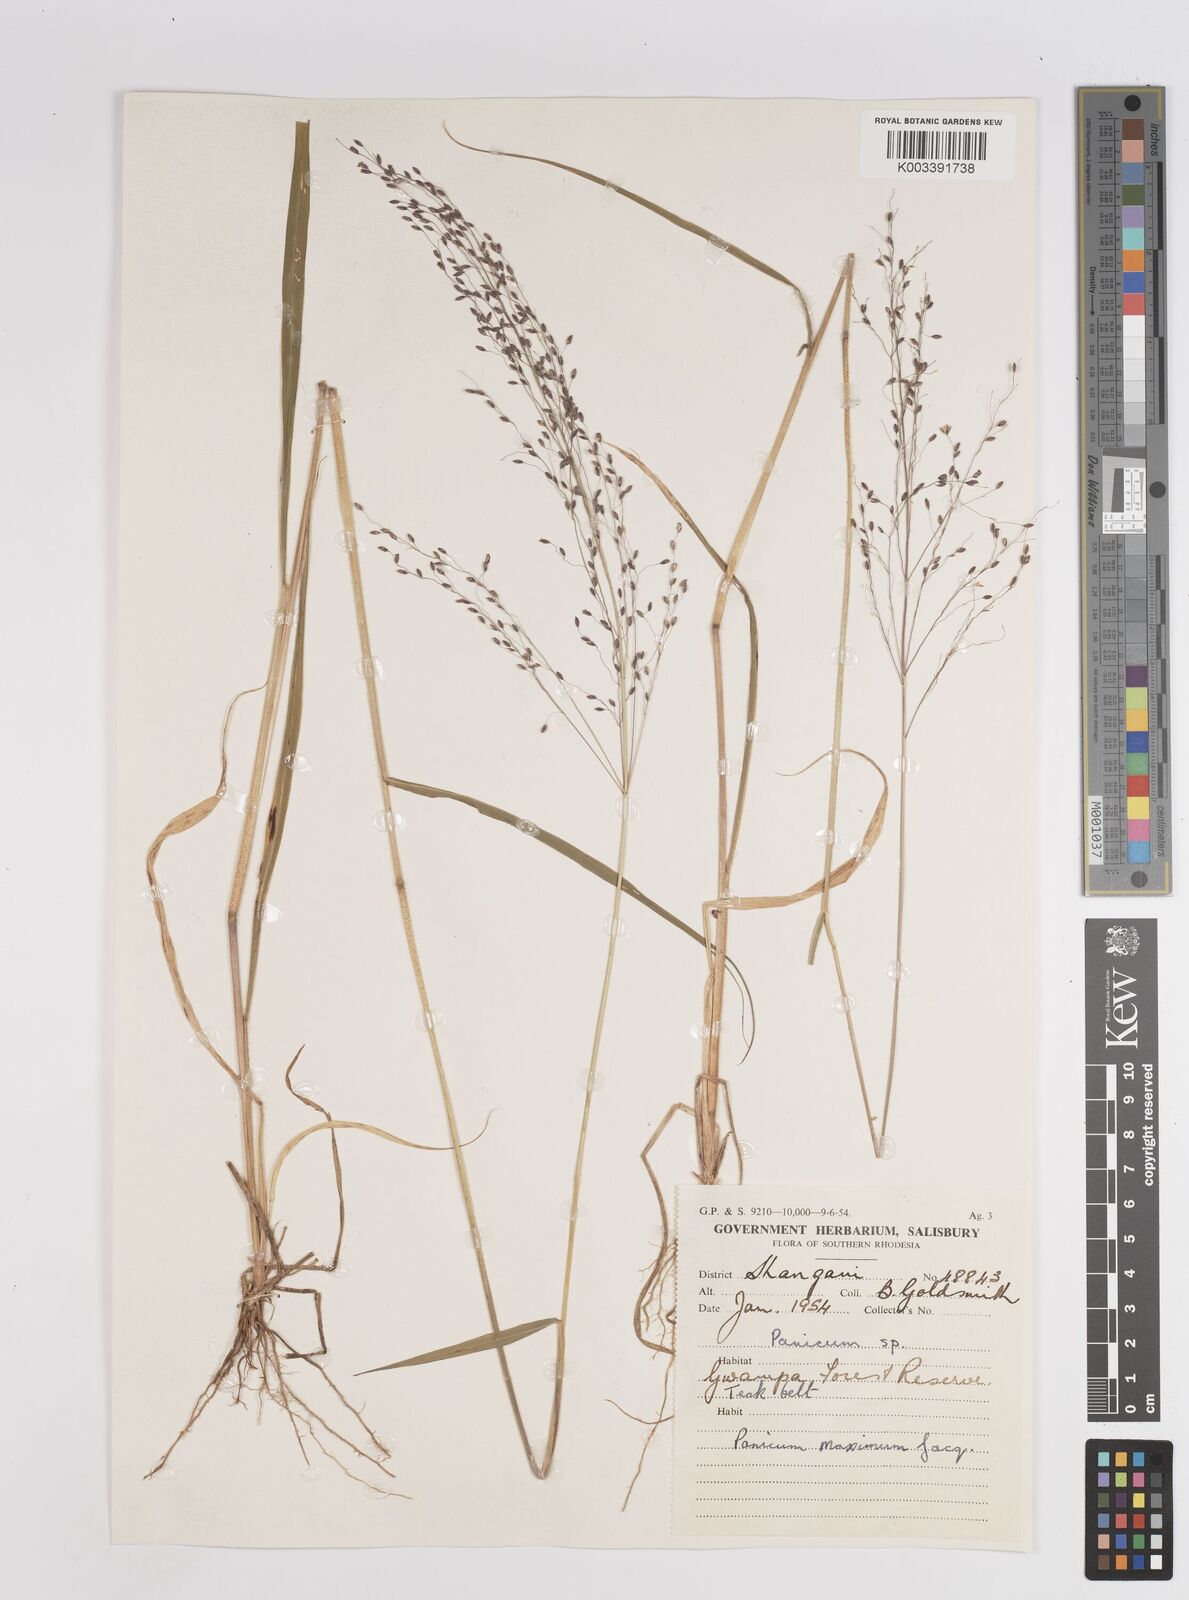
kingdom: Plantae
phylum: Tracheophyta
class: Liliopsida
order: Poales
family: Poaceae
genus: Megathyrsus
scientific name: Megathyrsus maximus
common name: Guineagrass
